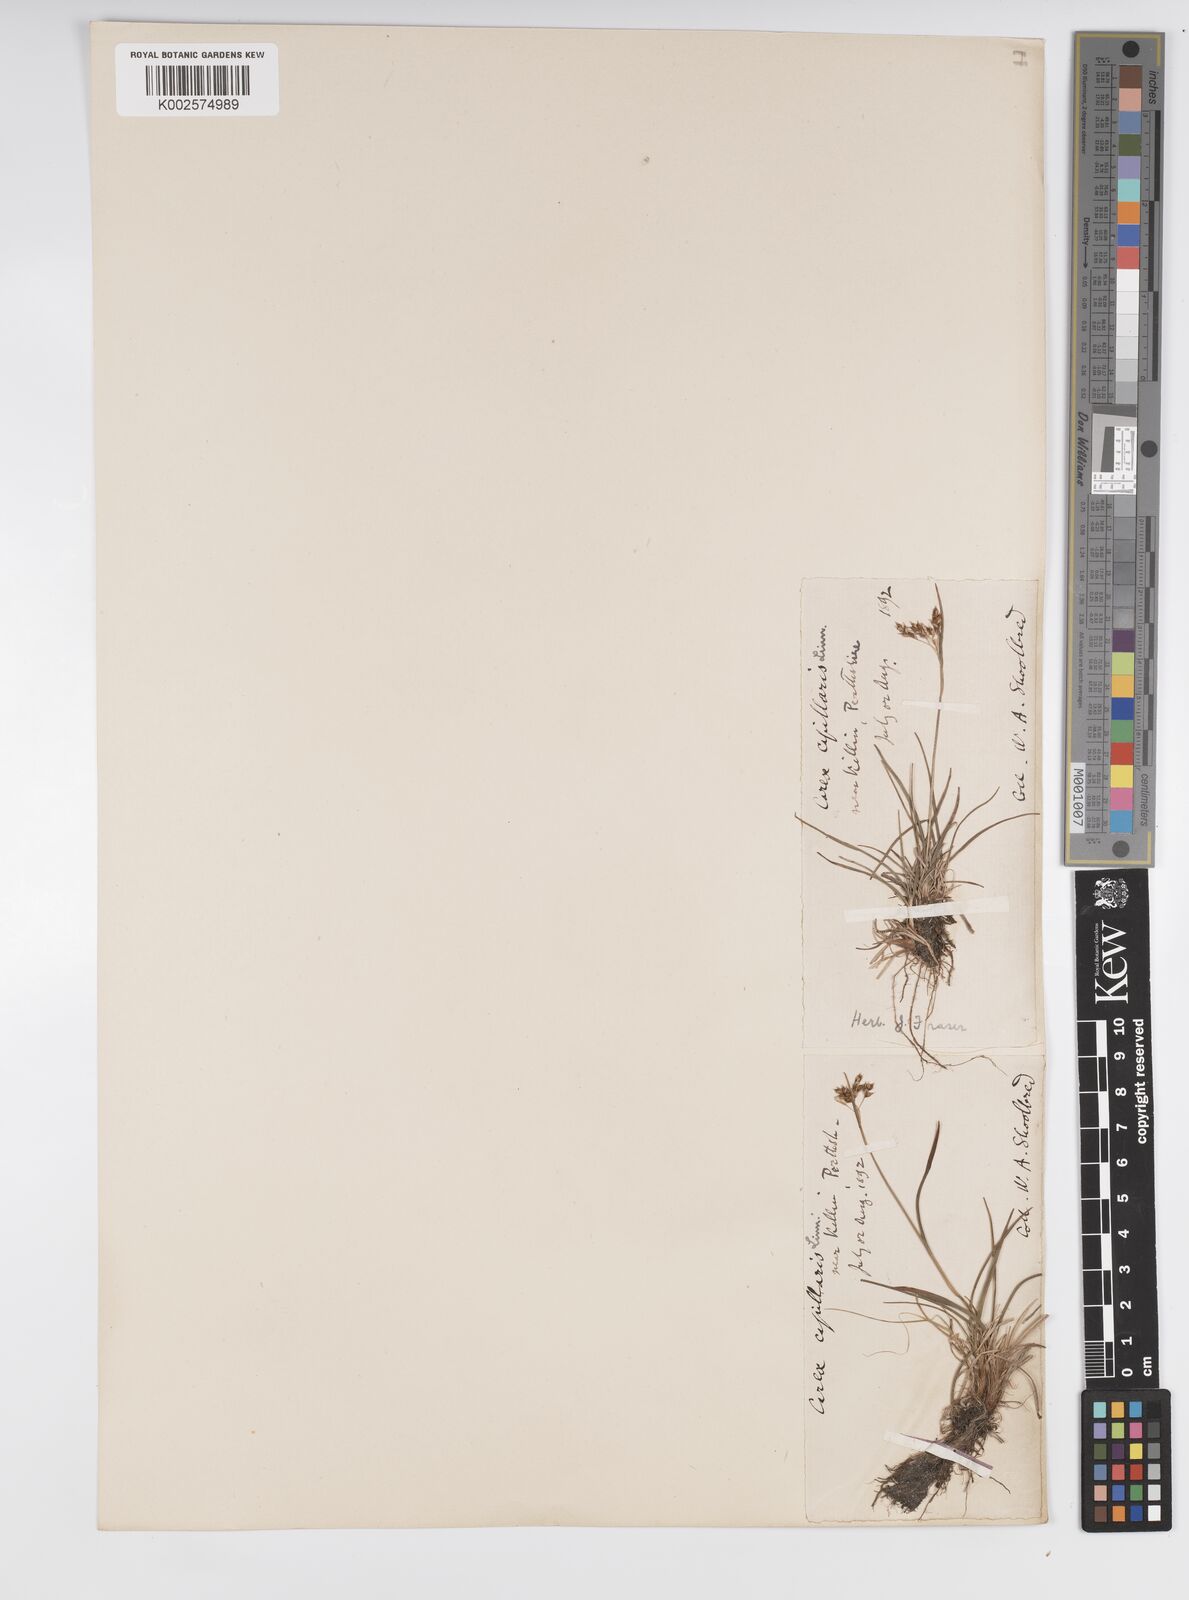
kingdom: Plantae
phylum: Tracheophyta
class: Liliopsida
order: Poales
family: Cyperaceae
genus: Carex
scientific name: Carex capillaris
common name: Hair sedge
